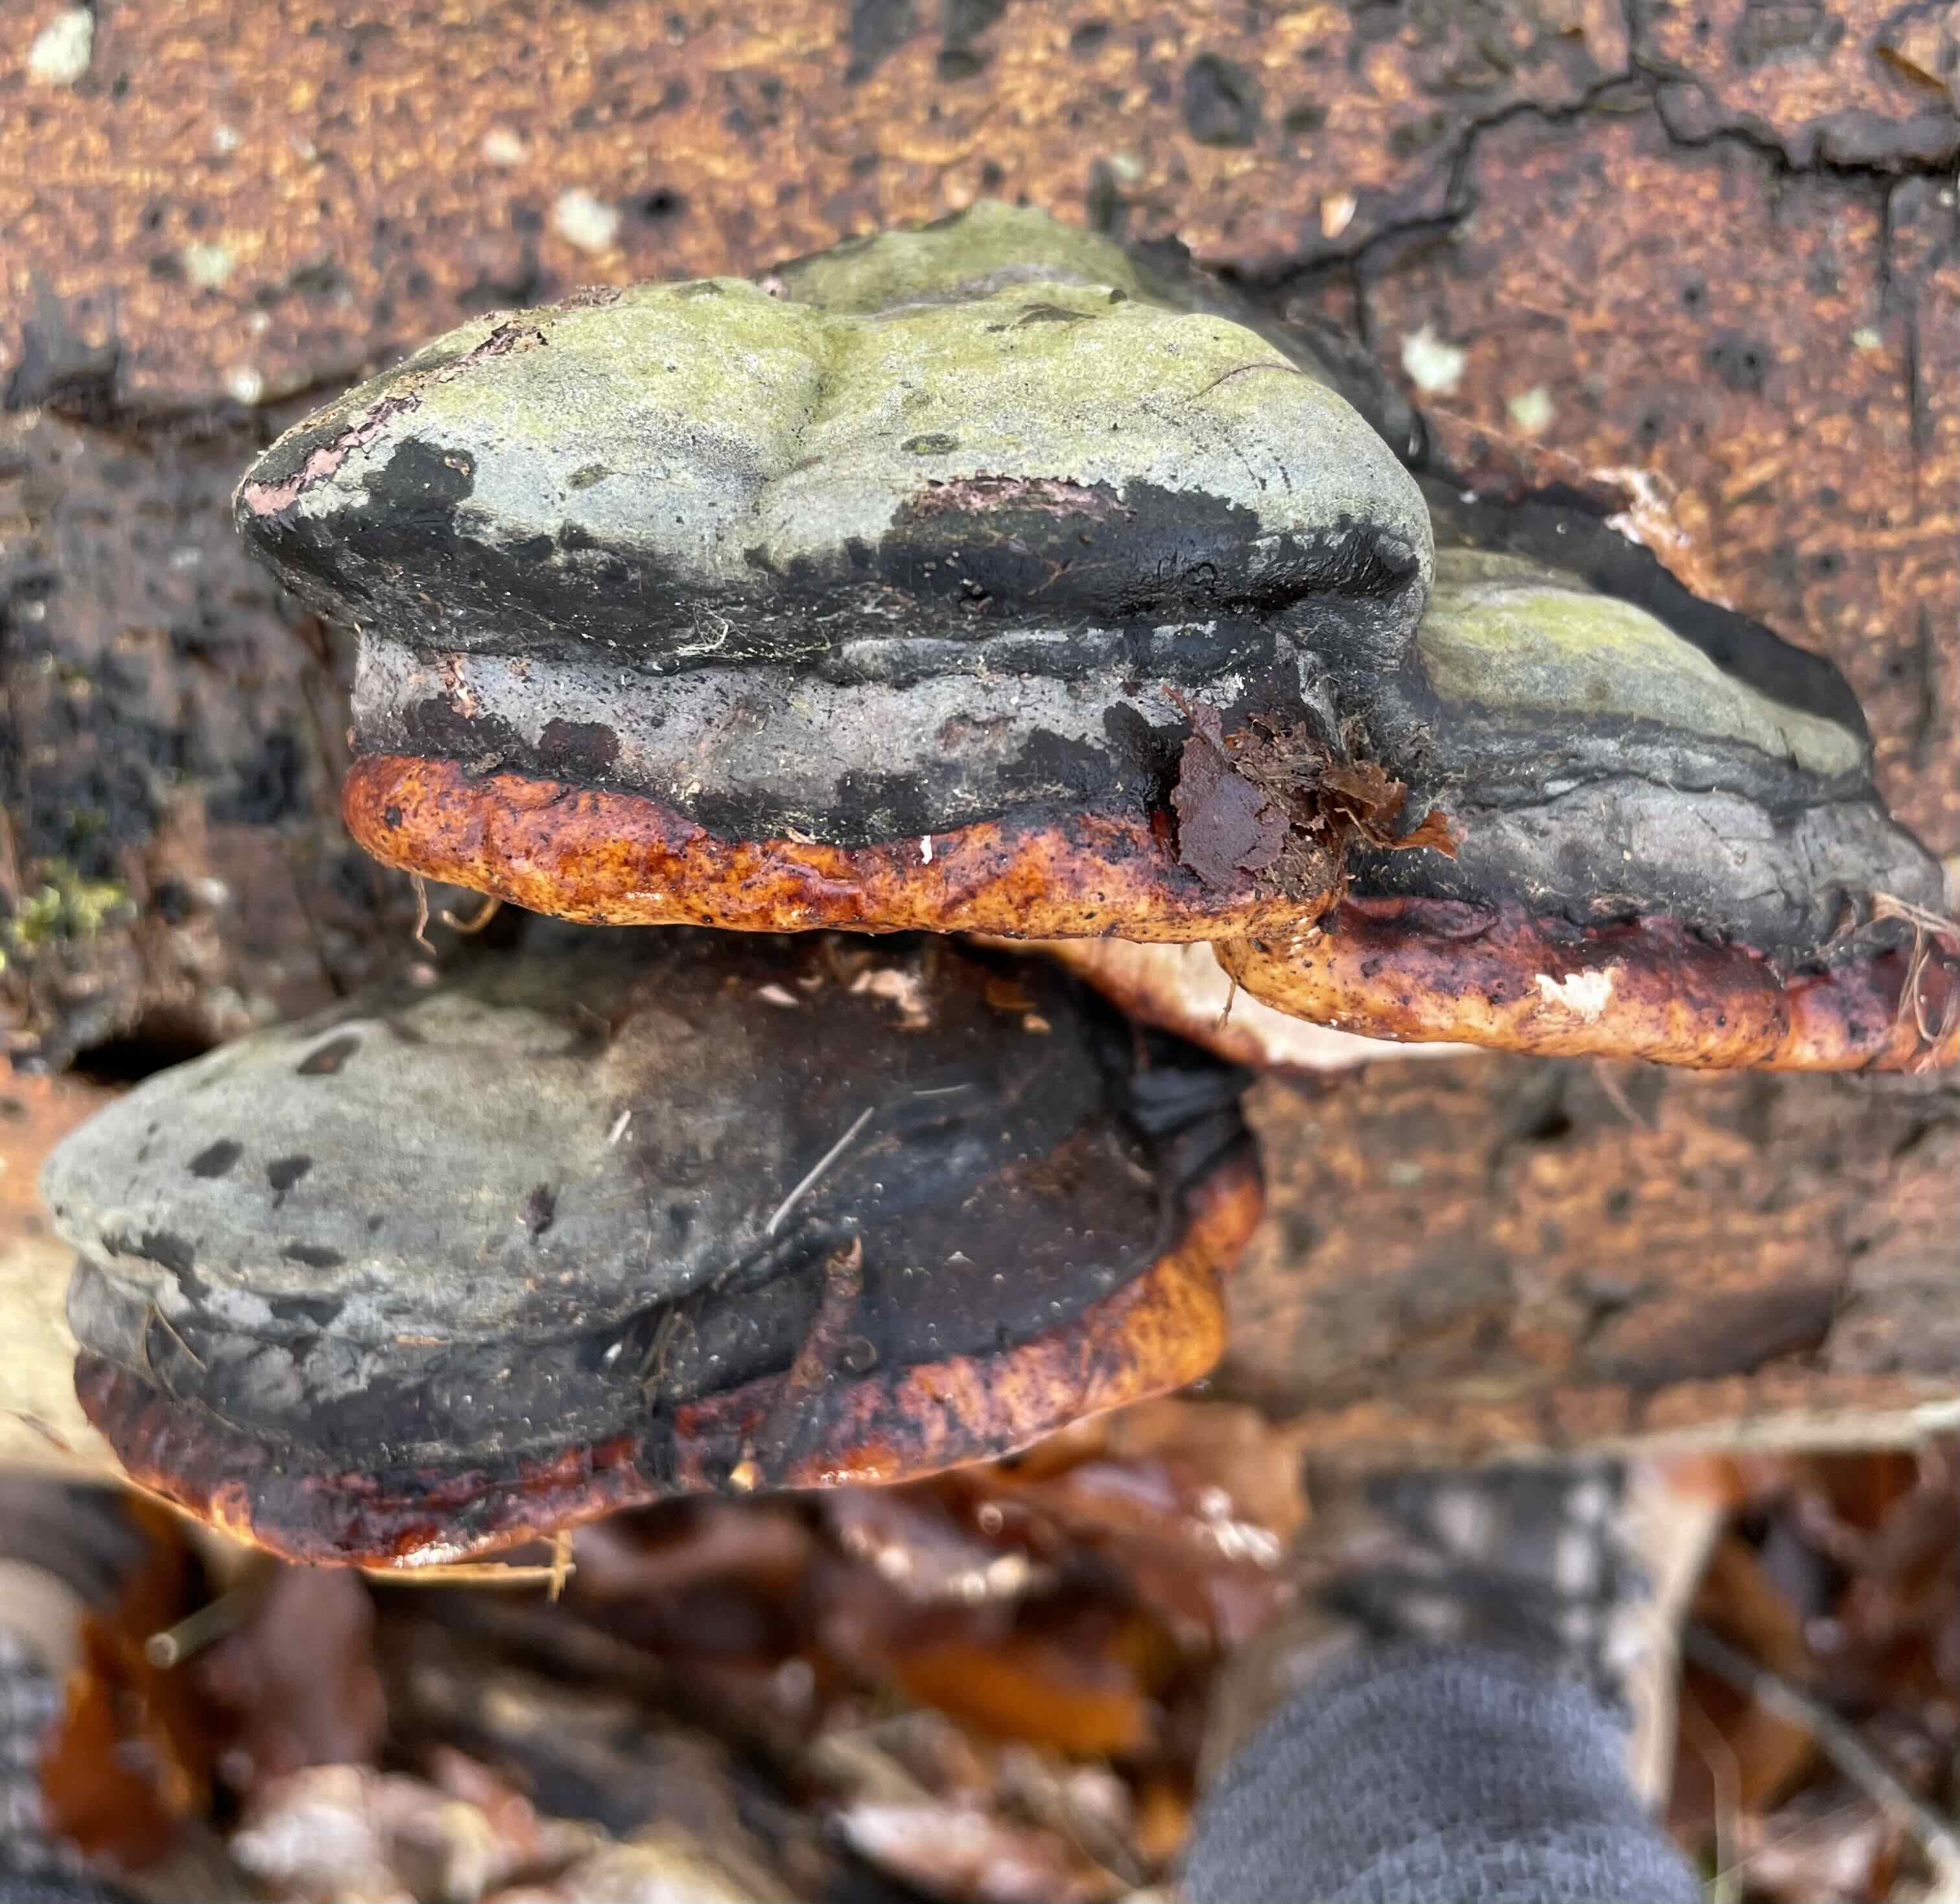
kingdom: Fungi
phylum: Basidiomycota
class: Agaricomycetes
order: Polyporales
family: Fomitopsidaceae
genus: Fomitopsis
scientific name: Fomitopsis pinicola
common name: randbæltet hovporesvamp
